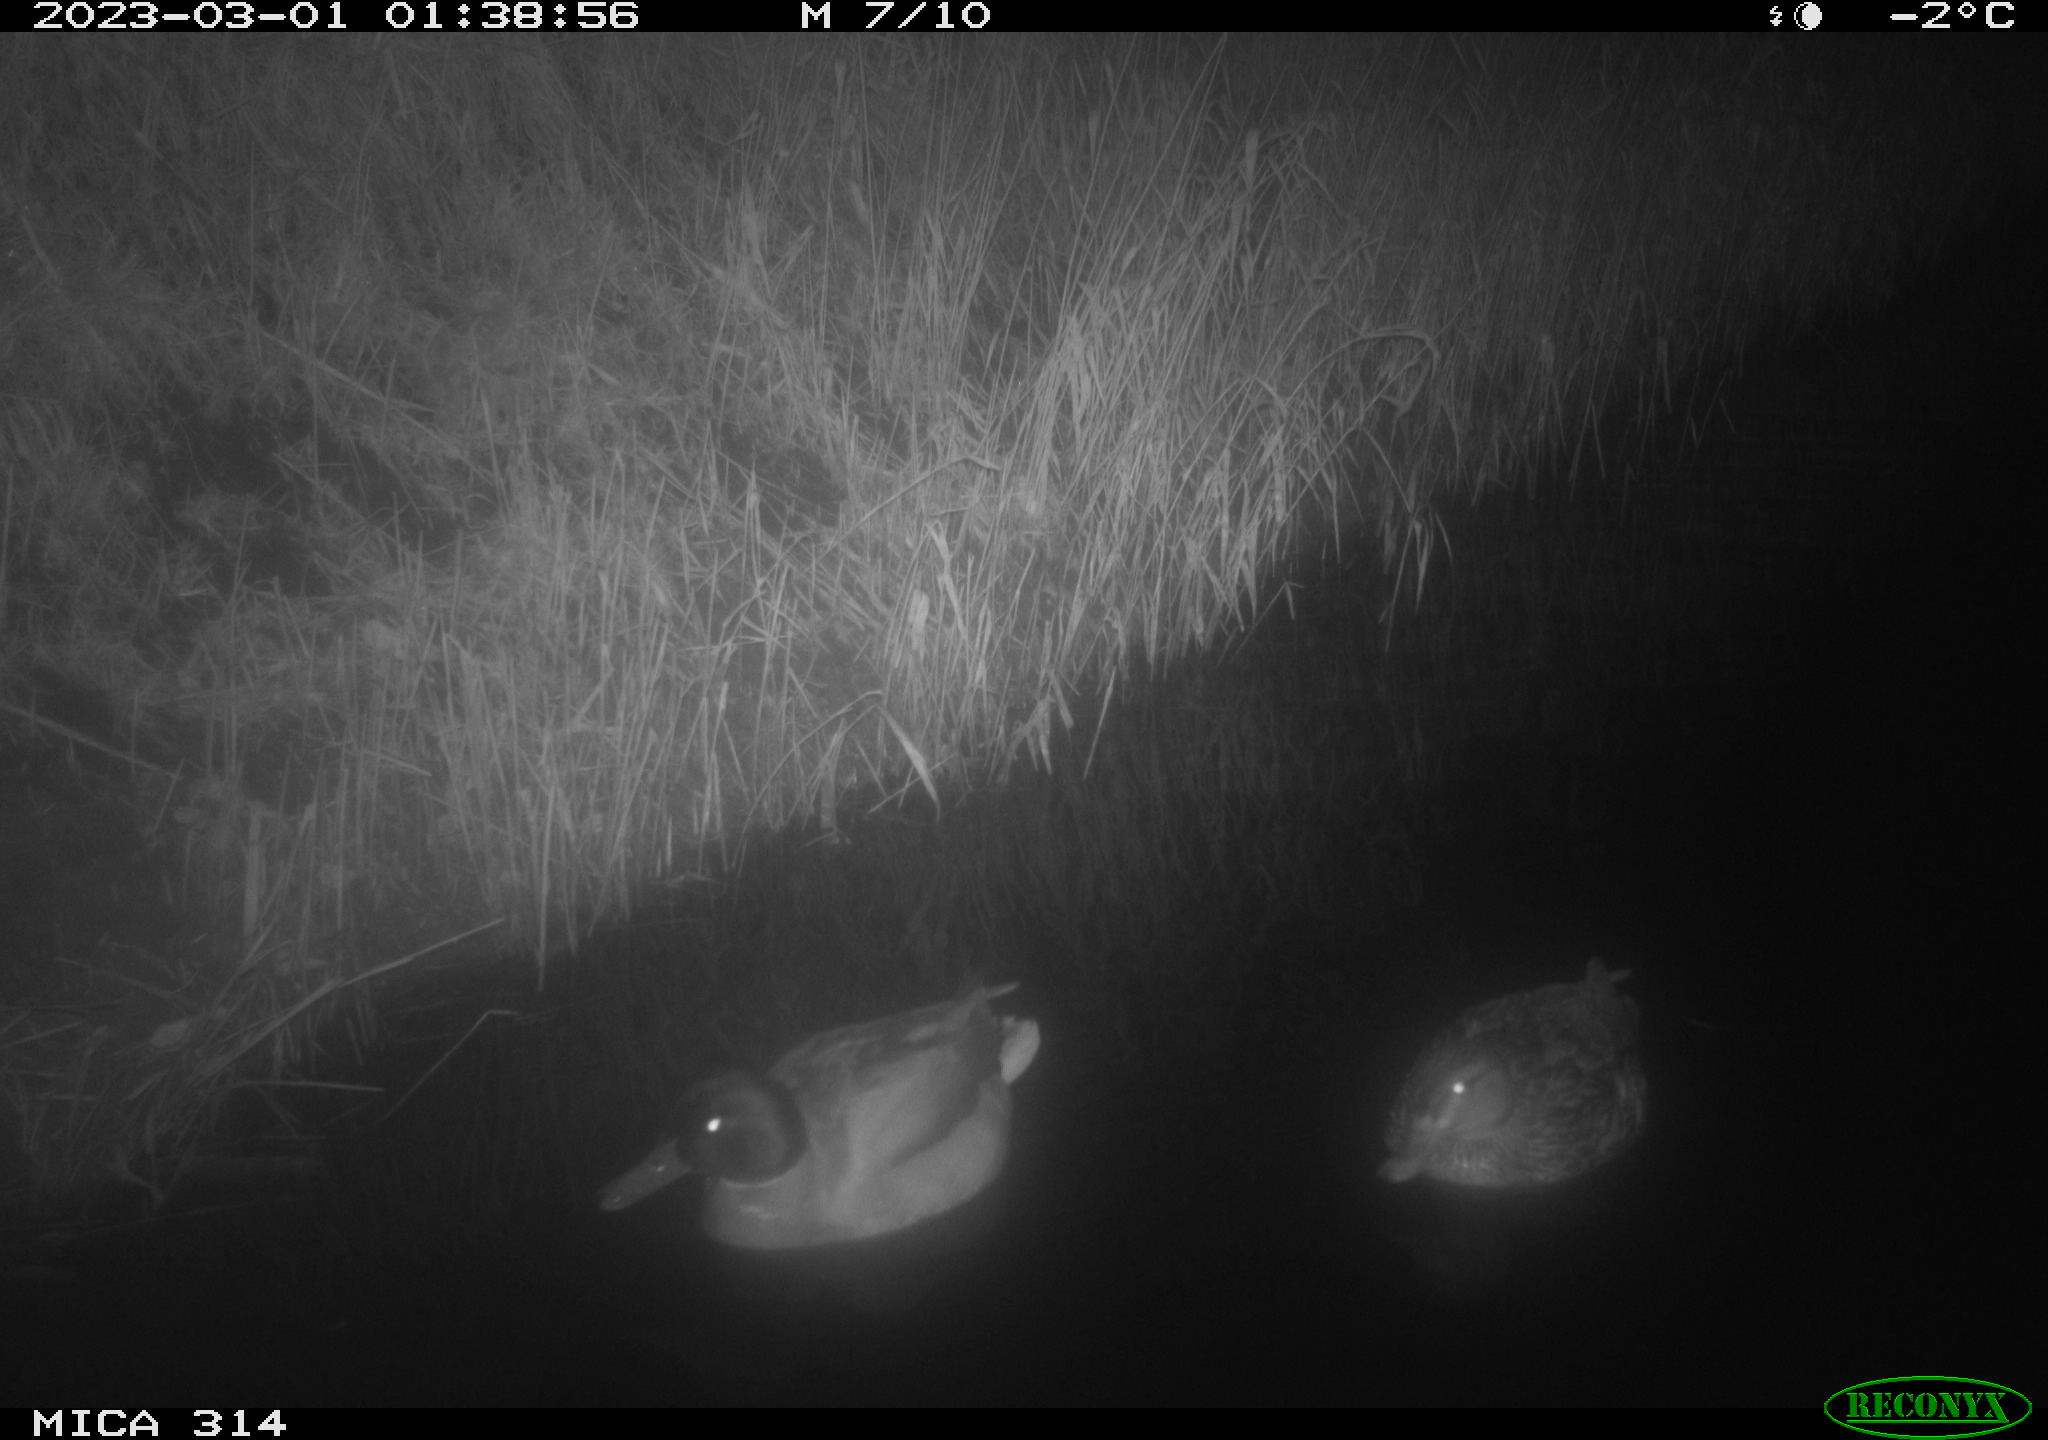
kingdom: Animalia
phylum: Chordata
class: Aves
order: Anseriformes
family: Anatidae
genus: Anas
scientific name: Anas
